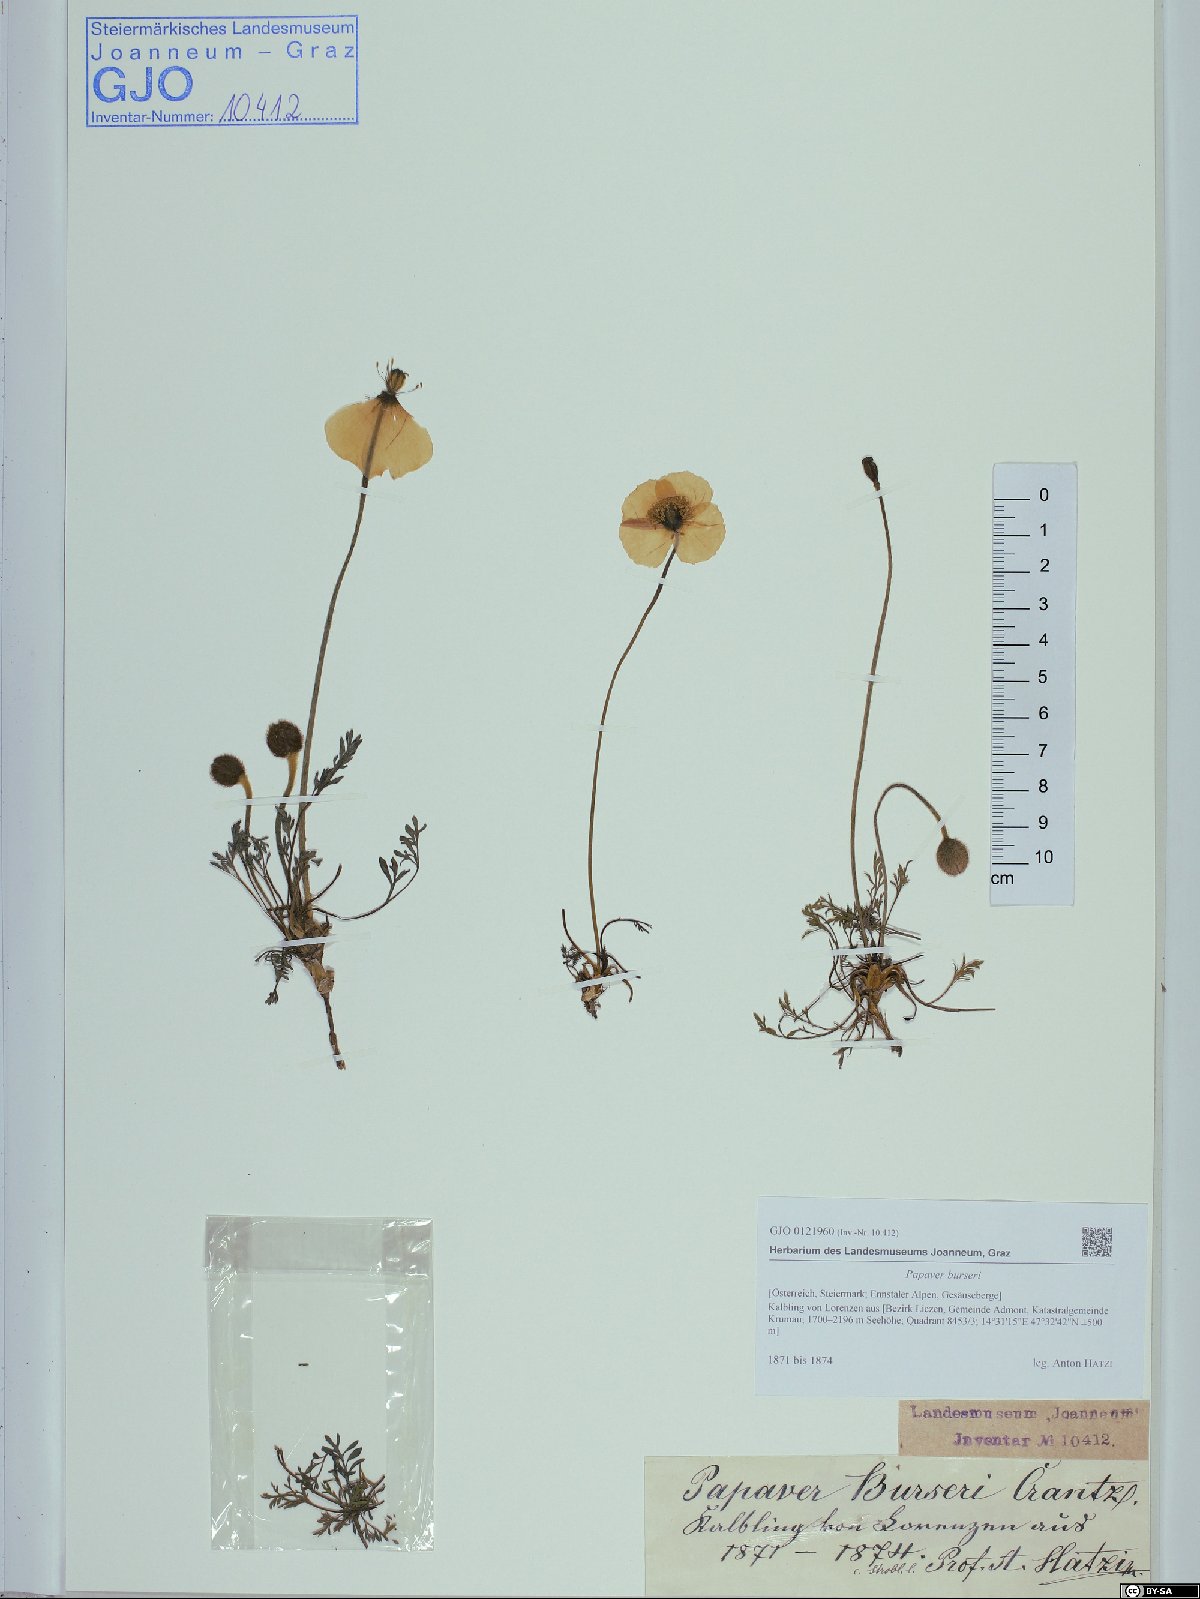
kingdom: Plantae
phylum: Tracheophyta
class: Magnoliopsida
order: Ranunculales
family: Papaveraceae
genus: Papaver
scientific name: Papaver alpinum
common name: Austrian poppy
